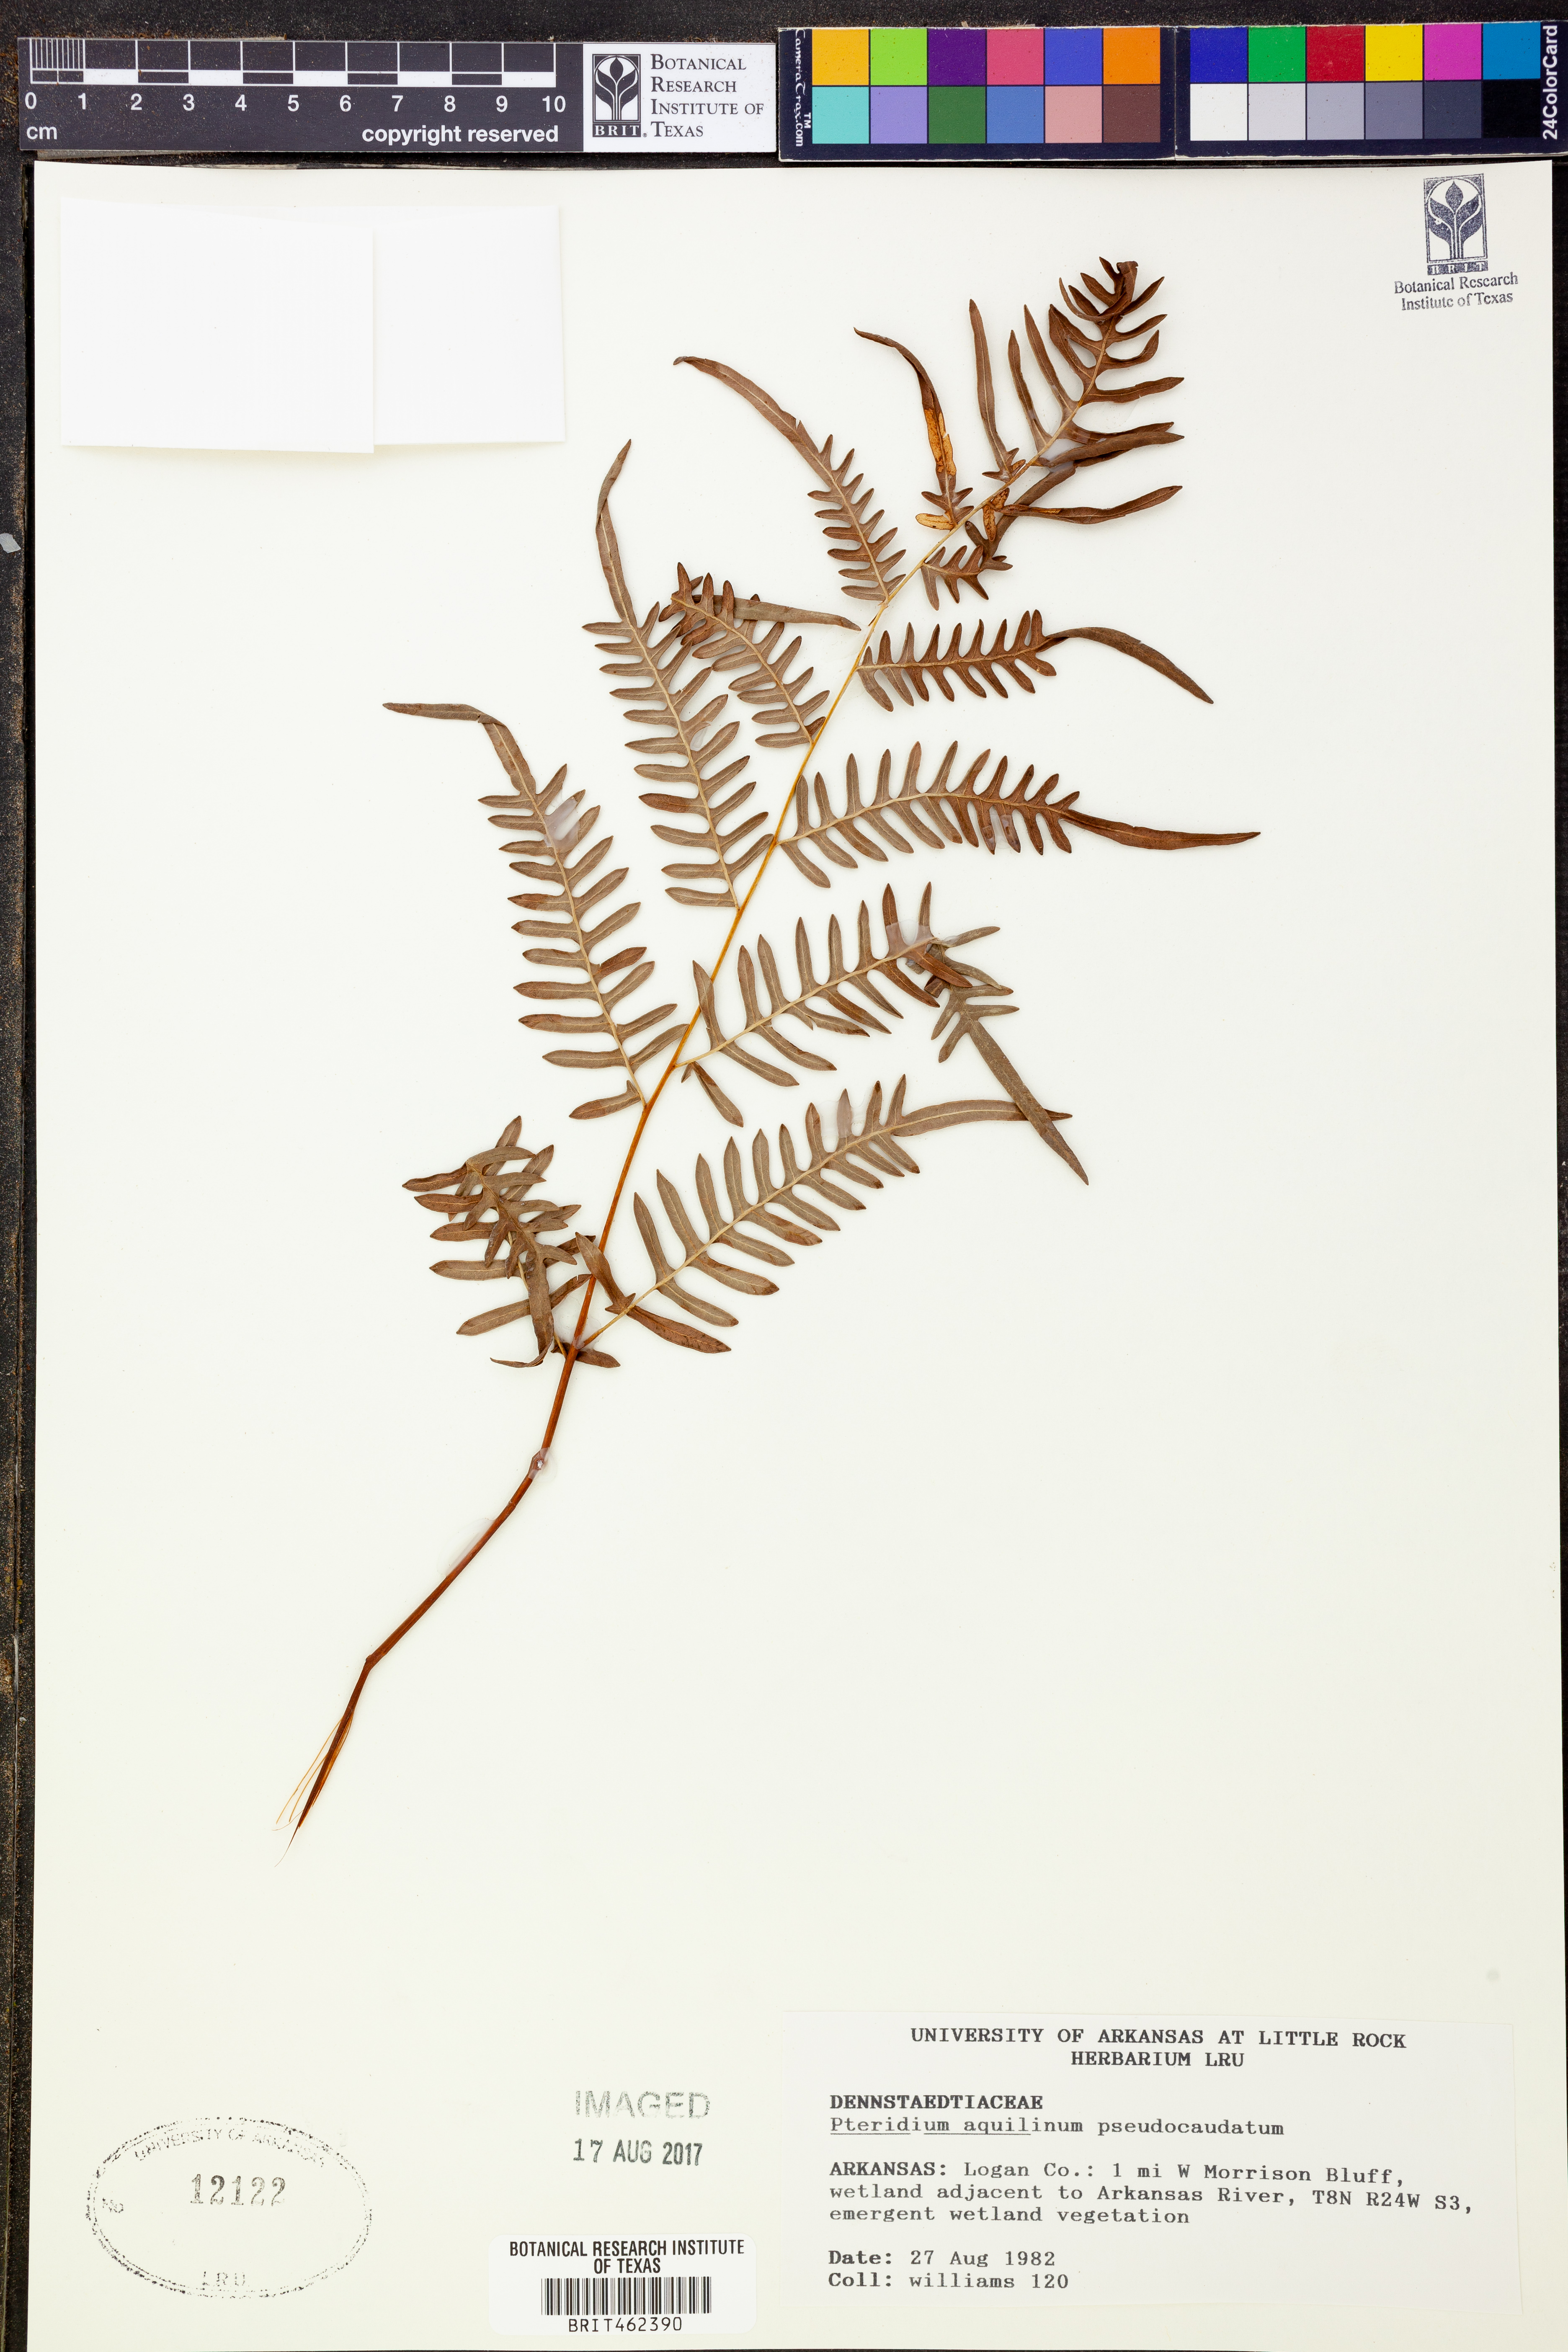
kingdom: Plantae
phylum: Tracheophyta
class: Polypodiopsida
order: Polypodiales
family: Dennstaedtiaceae
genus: Pteridium
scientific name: Pteridium aquilinum
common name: Bracken
